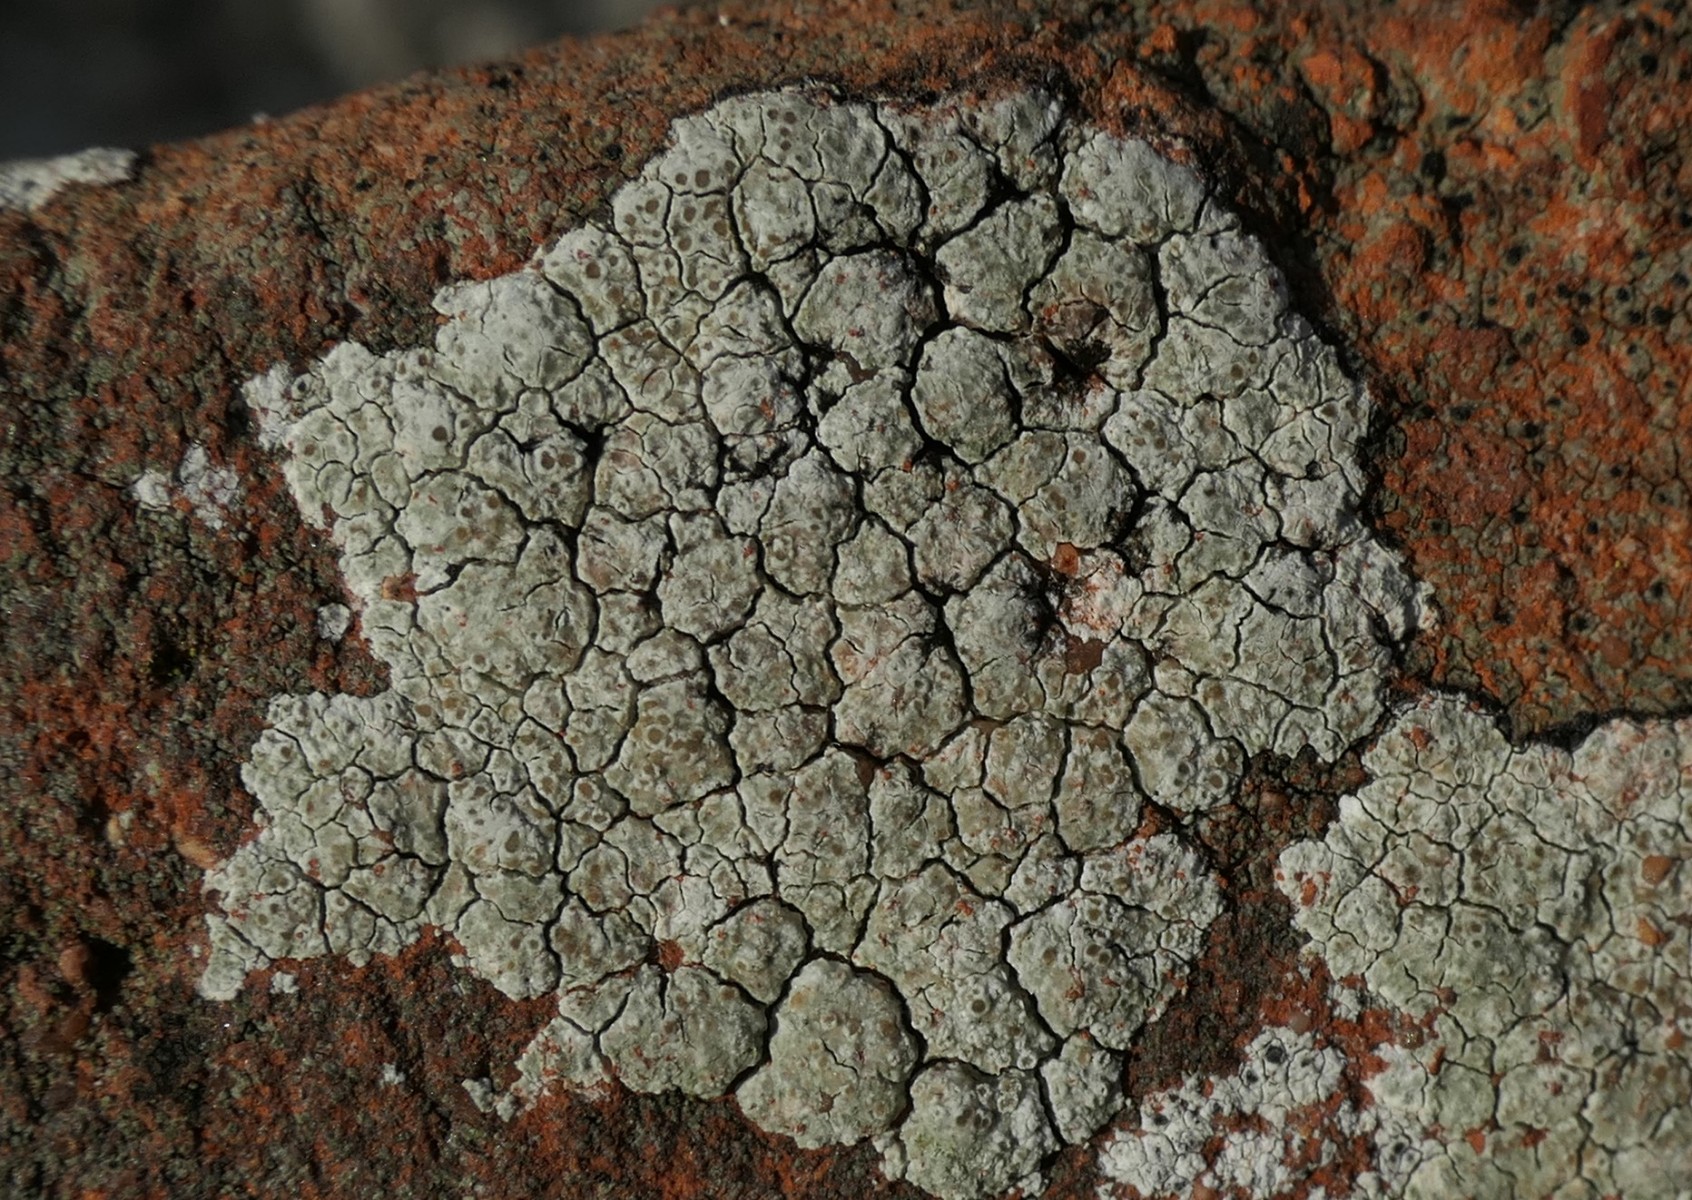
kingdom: Fungi
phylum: Ascomycota
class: Lecanoromycetes
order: Lecanorales
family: Lecanoraceae
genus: Polyozosia
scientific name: Polyozosia albescens
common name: cement-kantskivelav
